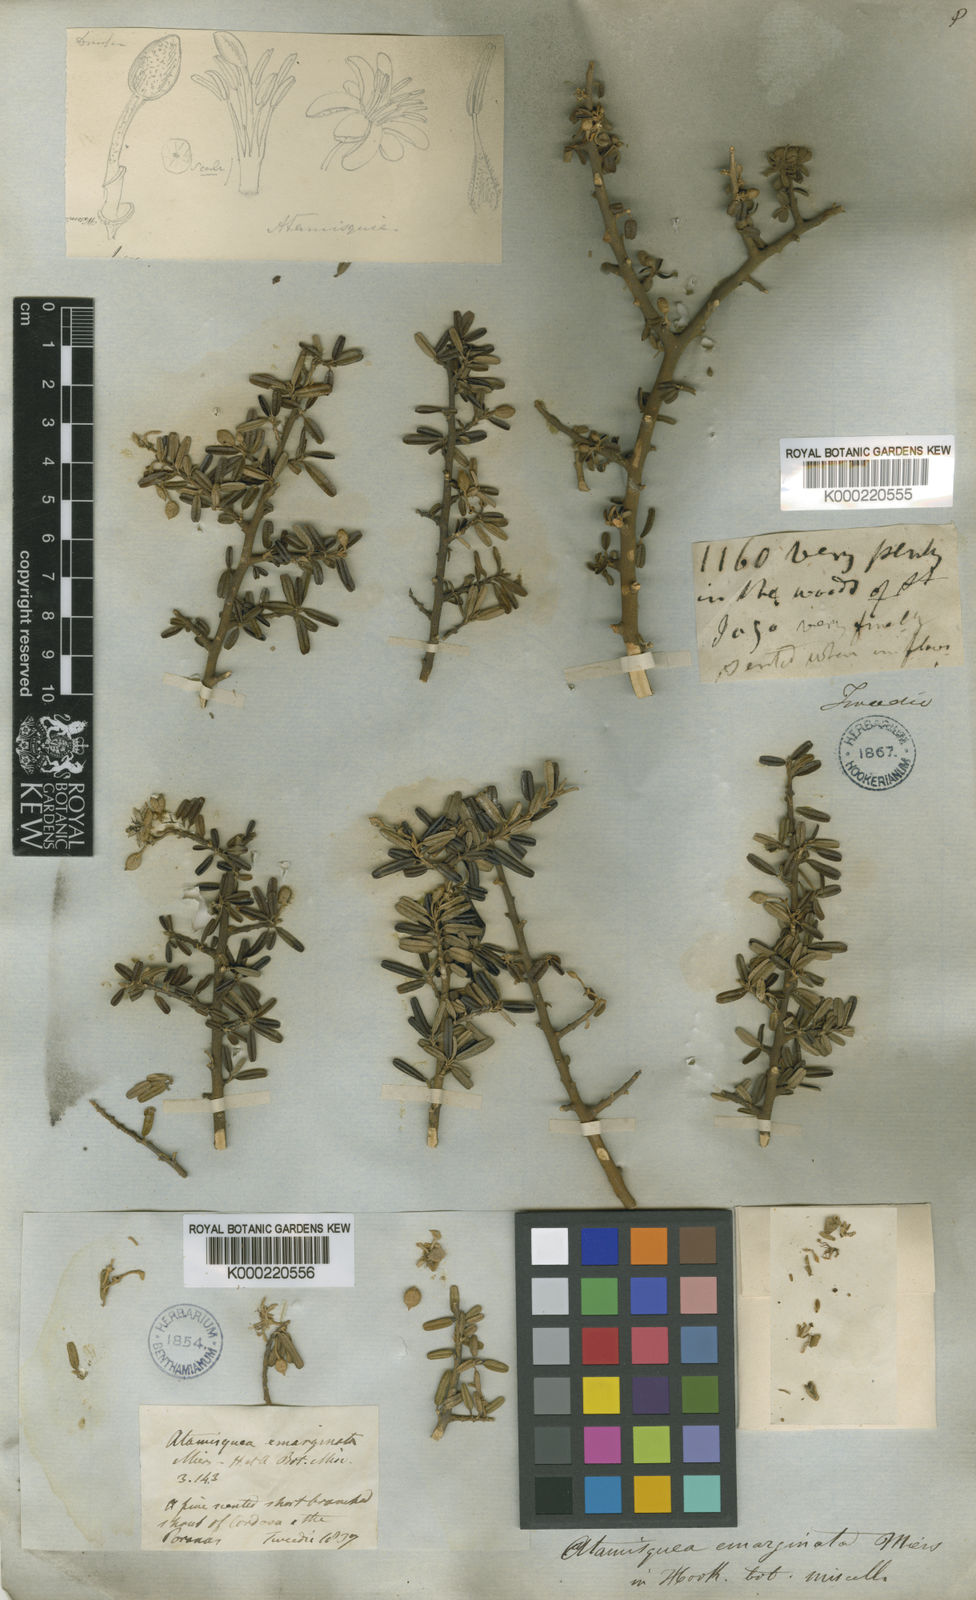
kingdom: Plantae
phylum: Tracheophyta
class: Magnoliopsida
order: Brassicales
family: Capparaceae
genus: Atamisquea
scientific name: Atamisquea emarginata
